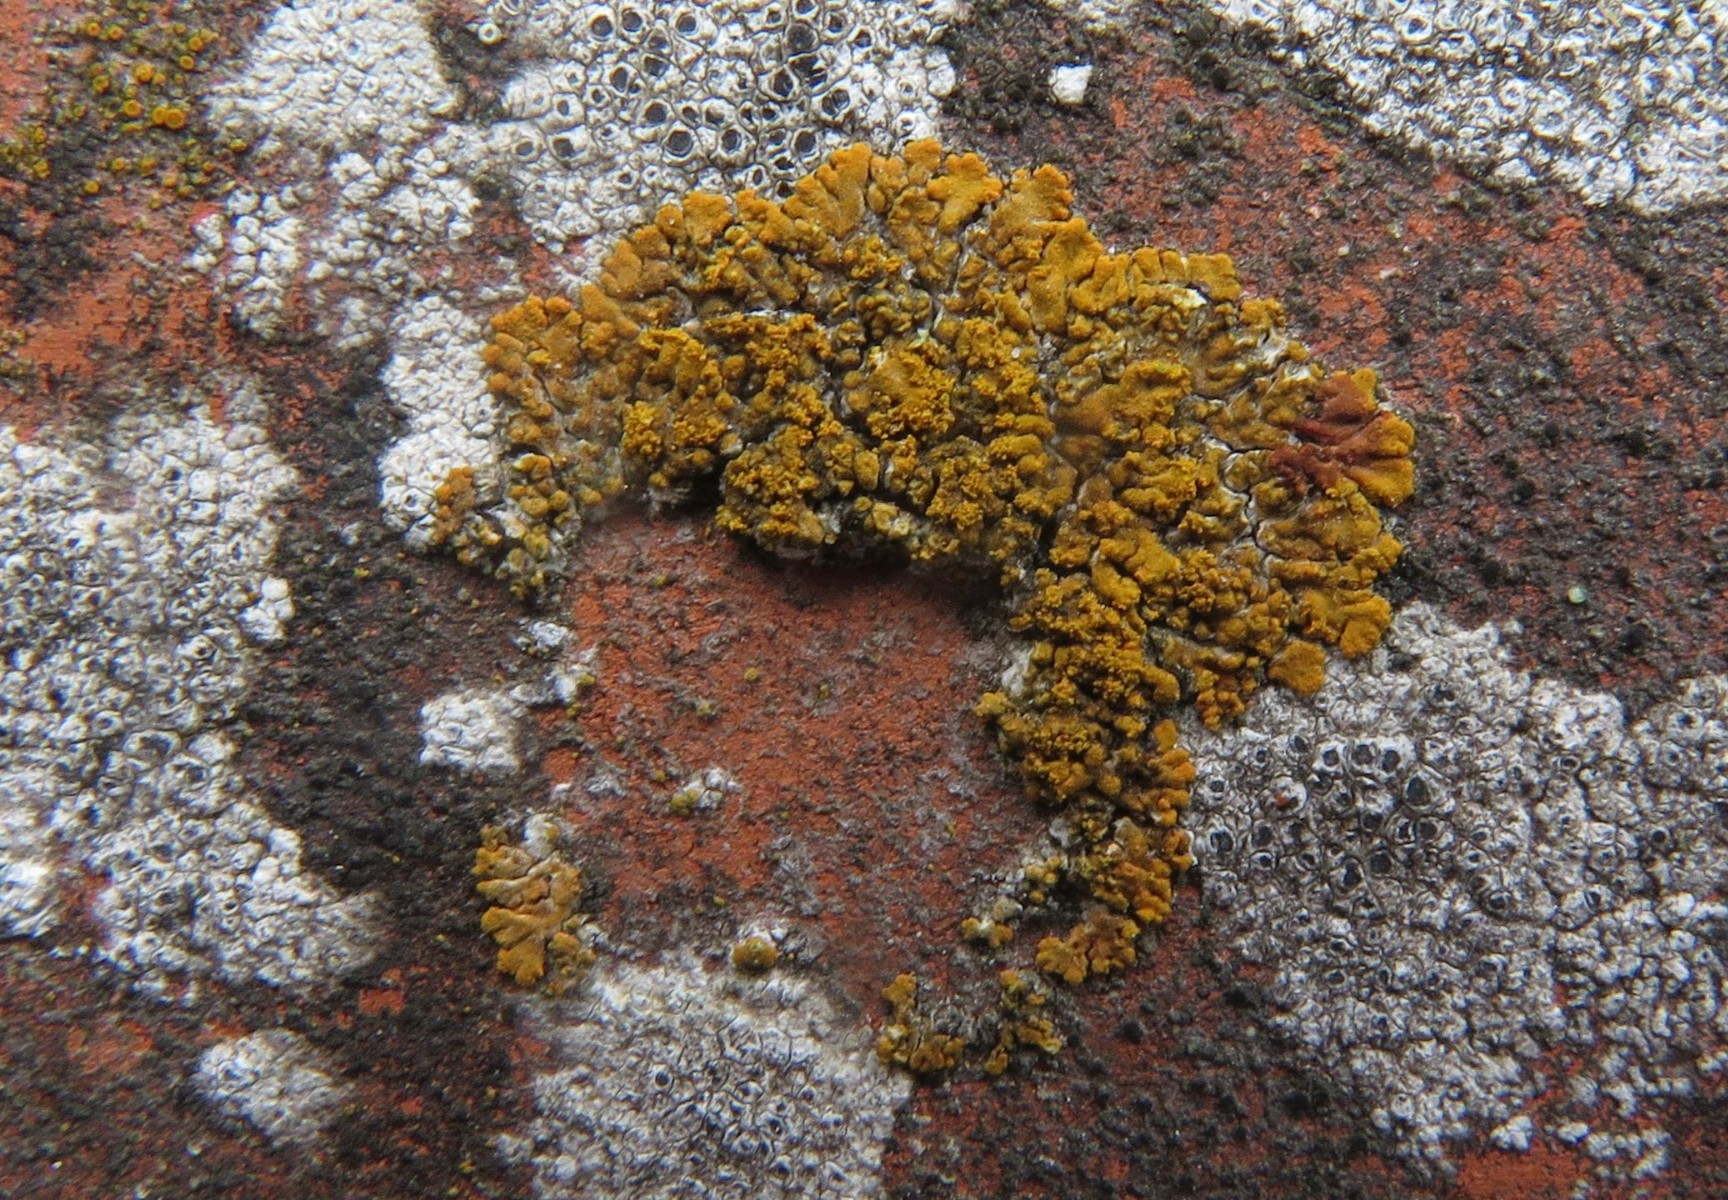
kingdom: Fungi
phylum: Ascomycota
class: Lecanoromycetes
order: Teloschistales
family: Teloschistaceae
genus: Calogaya
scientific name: Calogaya decipiens
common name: knudret orangelav
